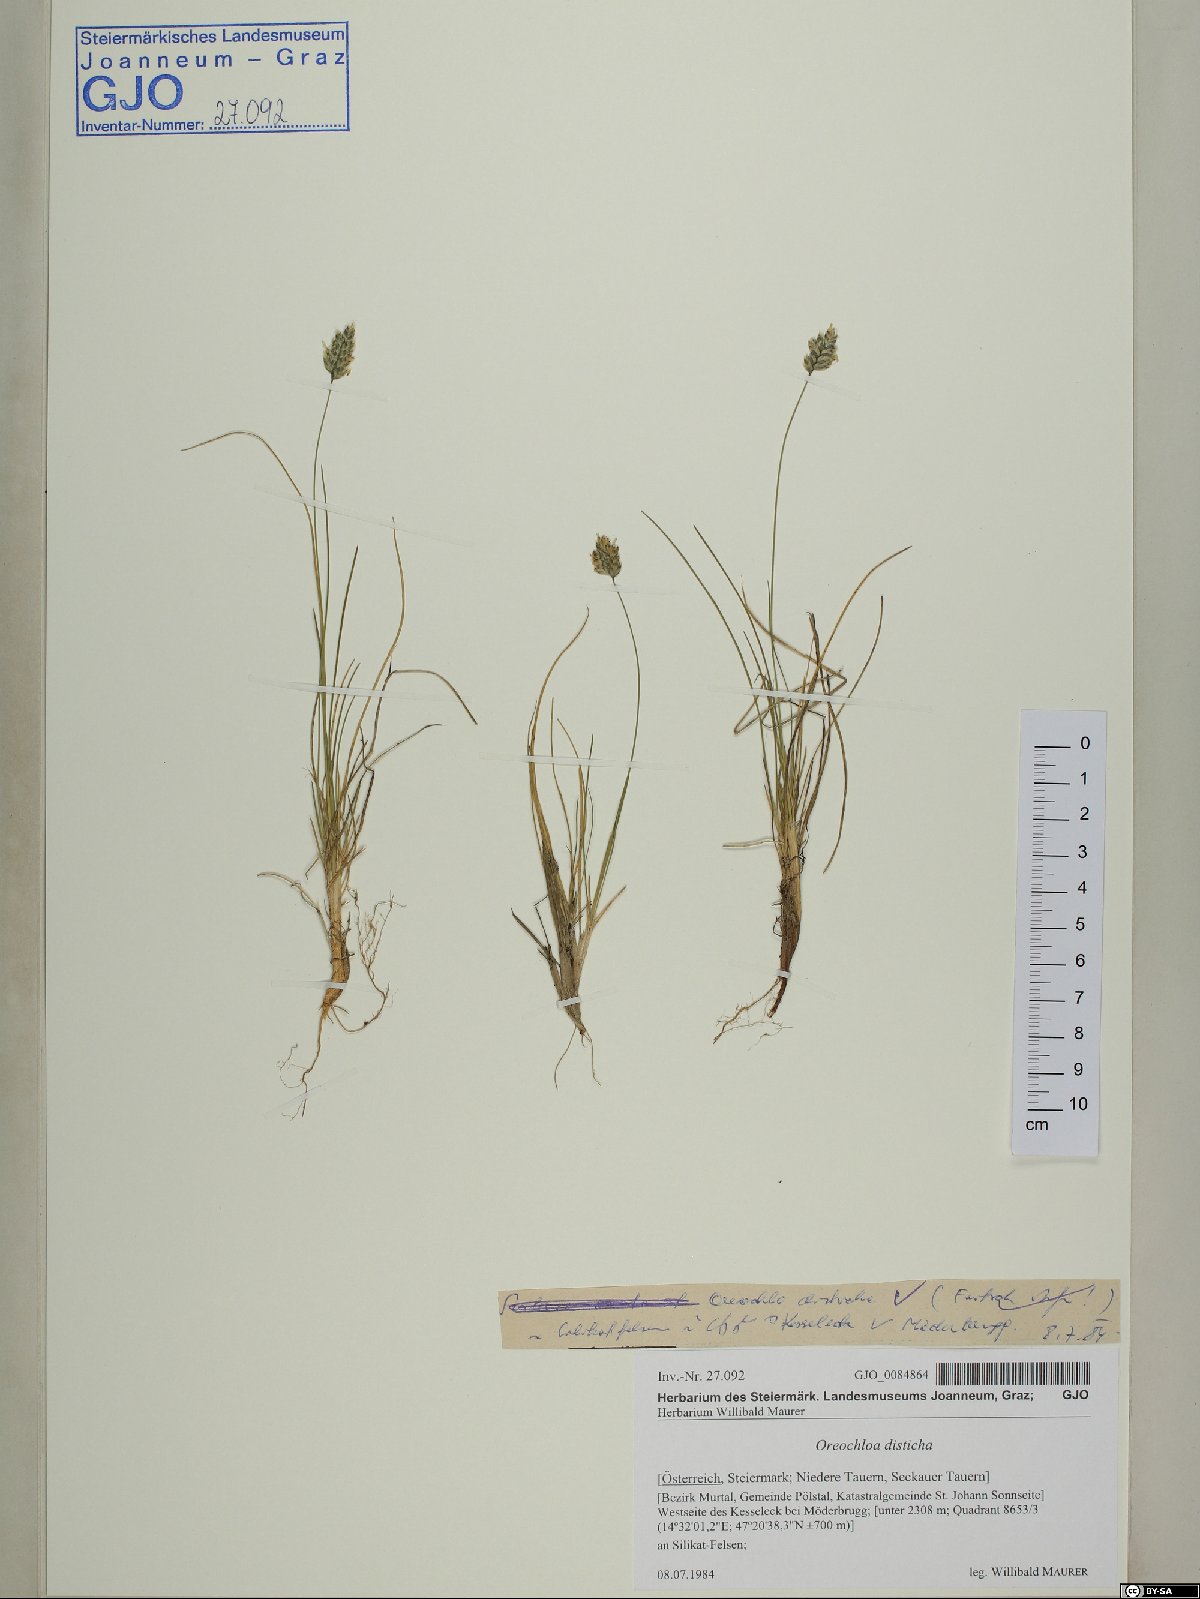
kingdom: Plantae
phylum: Tracheophyta
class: Liliopsida
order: Poales
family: Poaceae
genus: Oreochloa
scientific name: Oreochloa disticha
